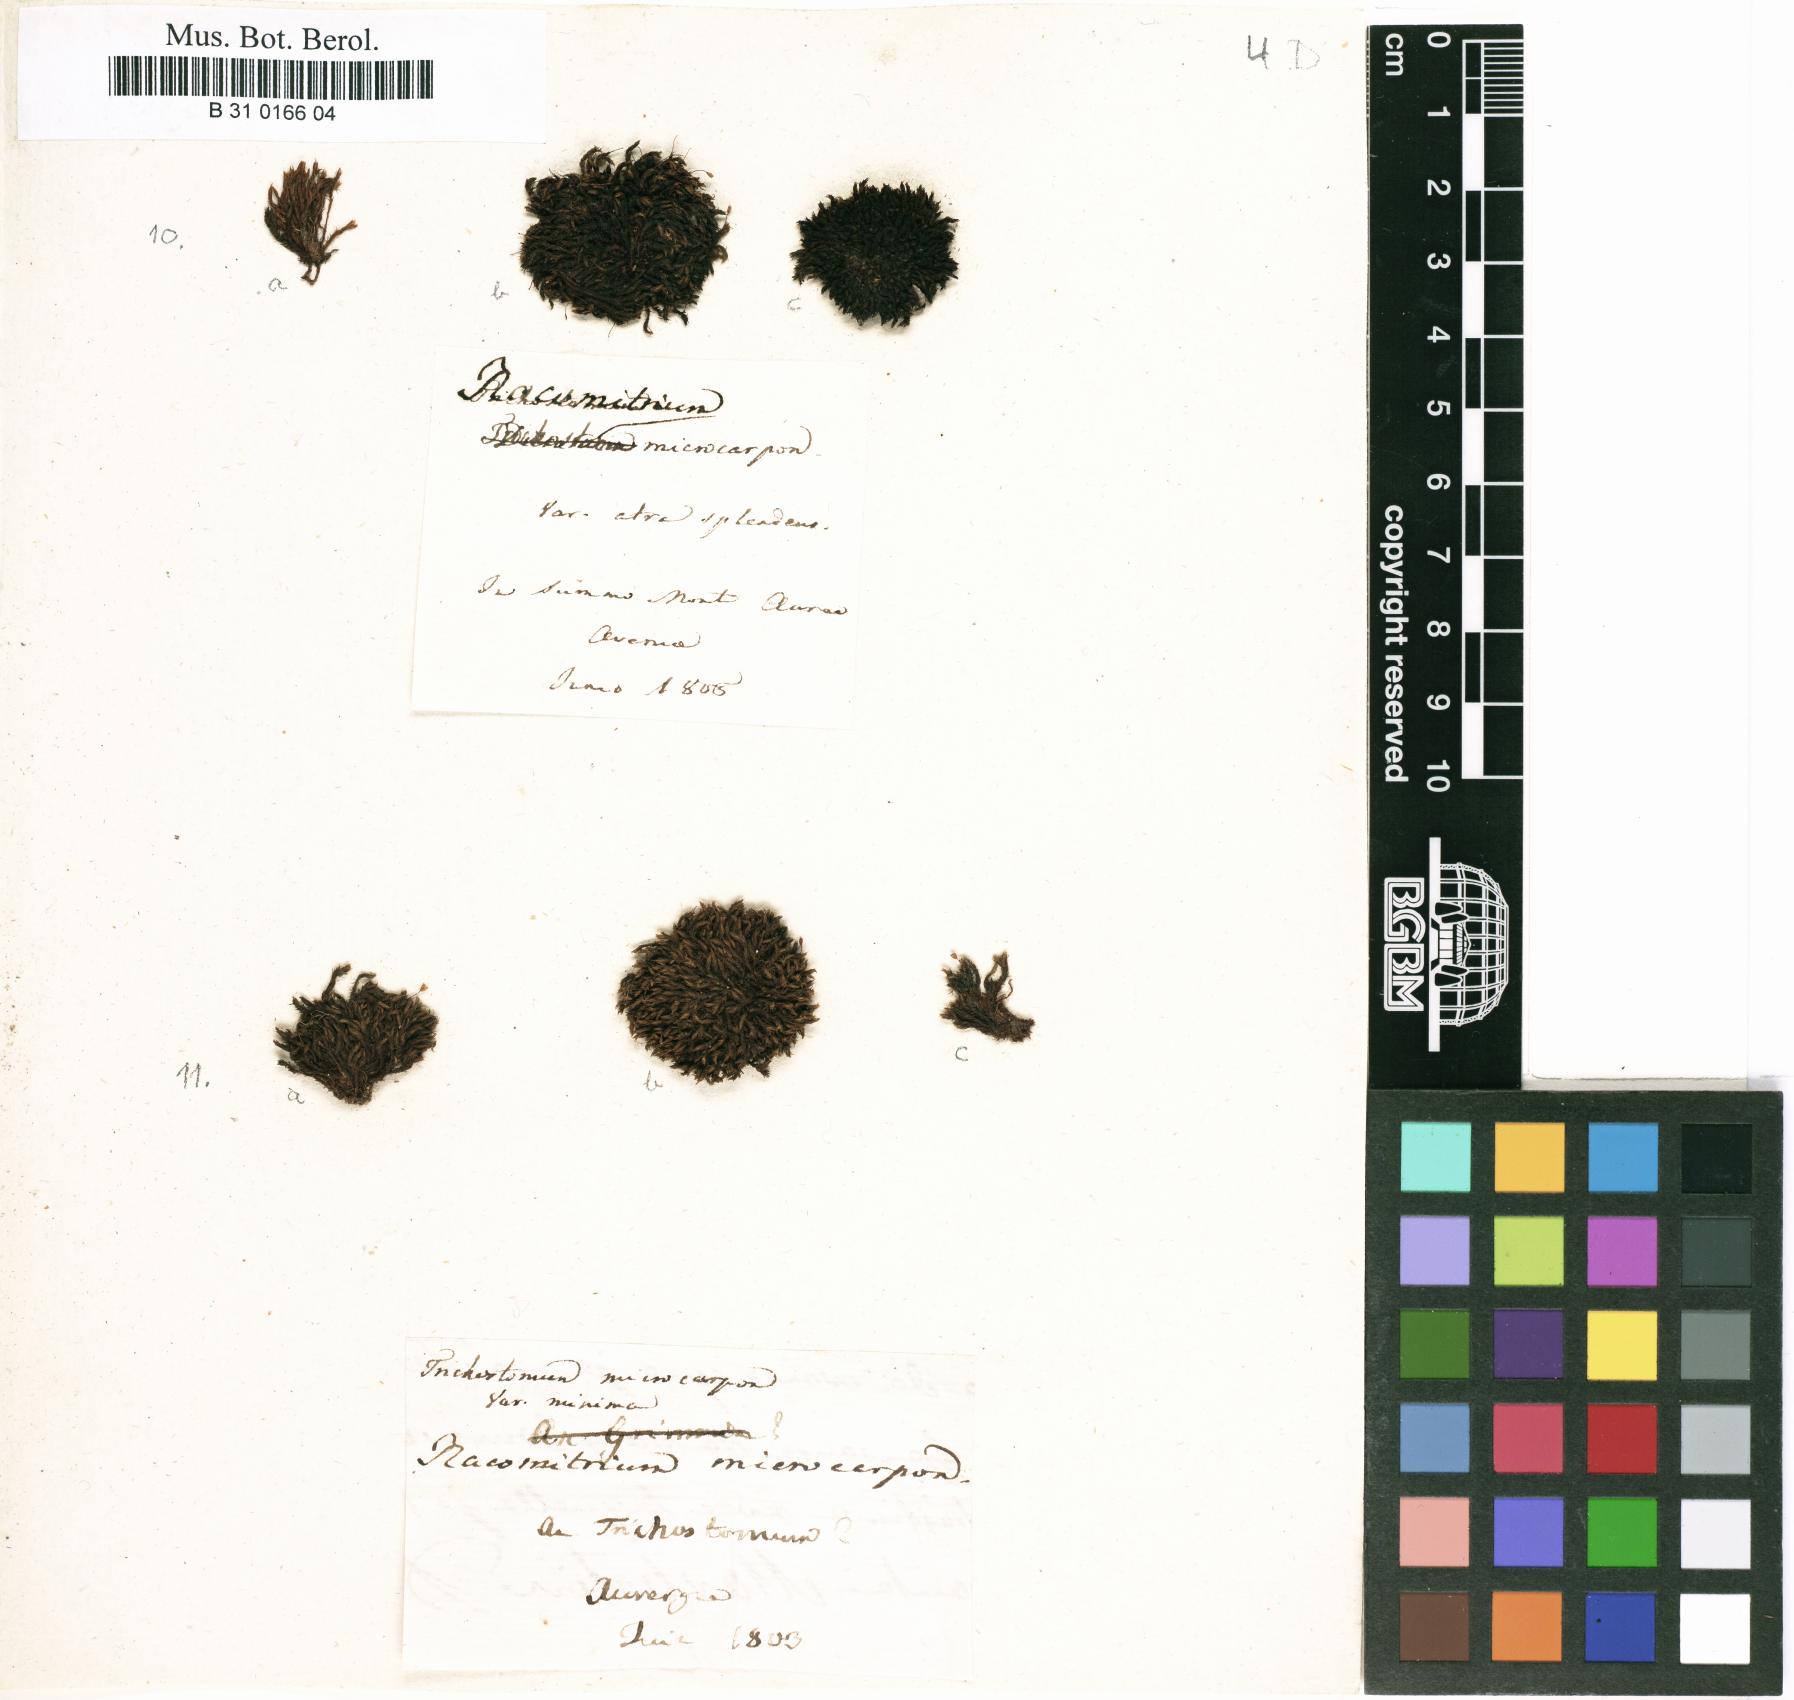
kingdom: Plantae
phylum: Bryophyta
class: Bryopsida
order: Grimmiales
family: Grimmiaceae
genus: Bucklandiella
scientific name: Bucklandiella microcarpos
